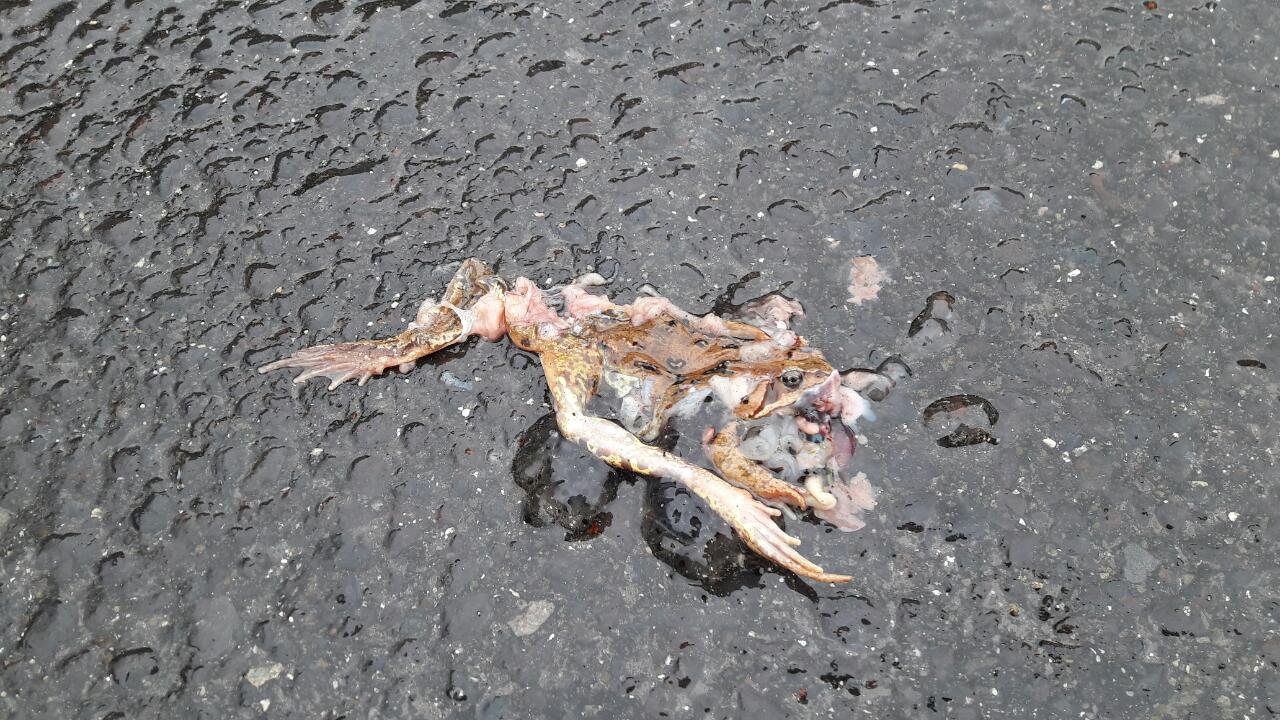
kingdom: Animalia
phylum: Chordata
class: Amphibia
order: Anura
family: Ranidae
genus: Rana
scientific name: Rana temporaria
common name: Common frog
